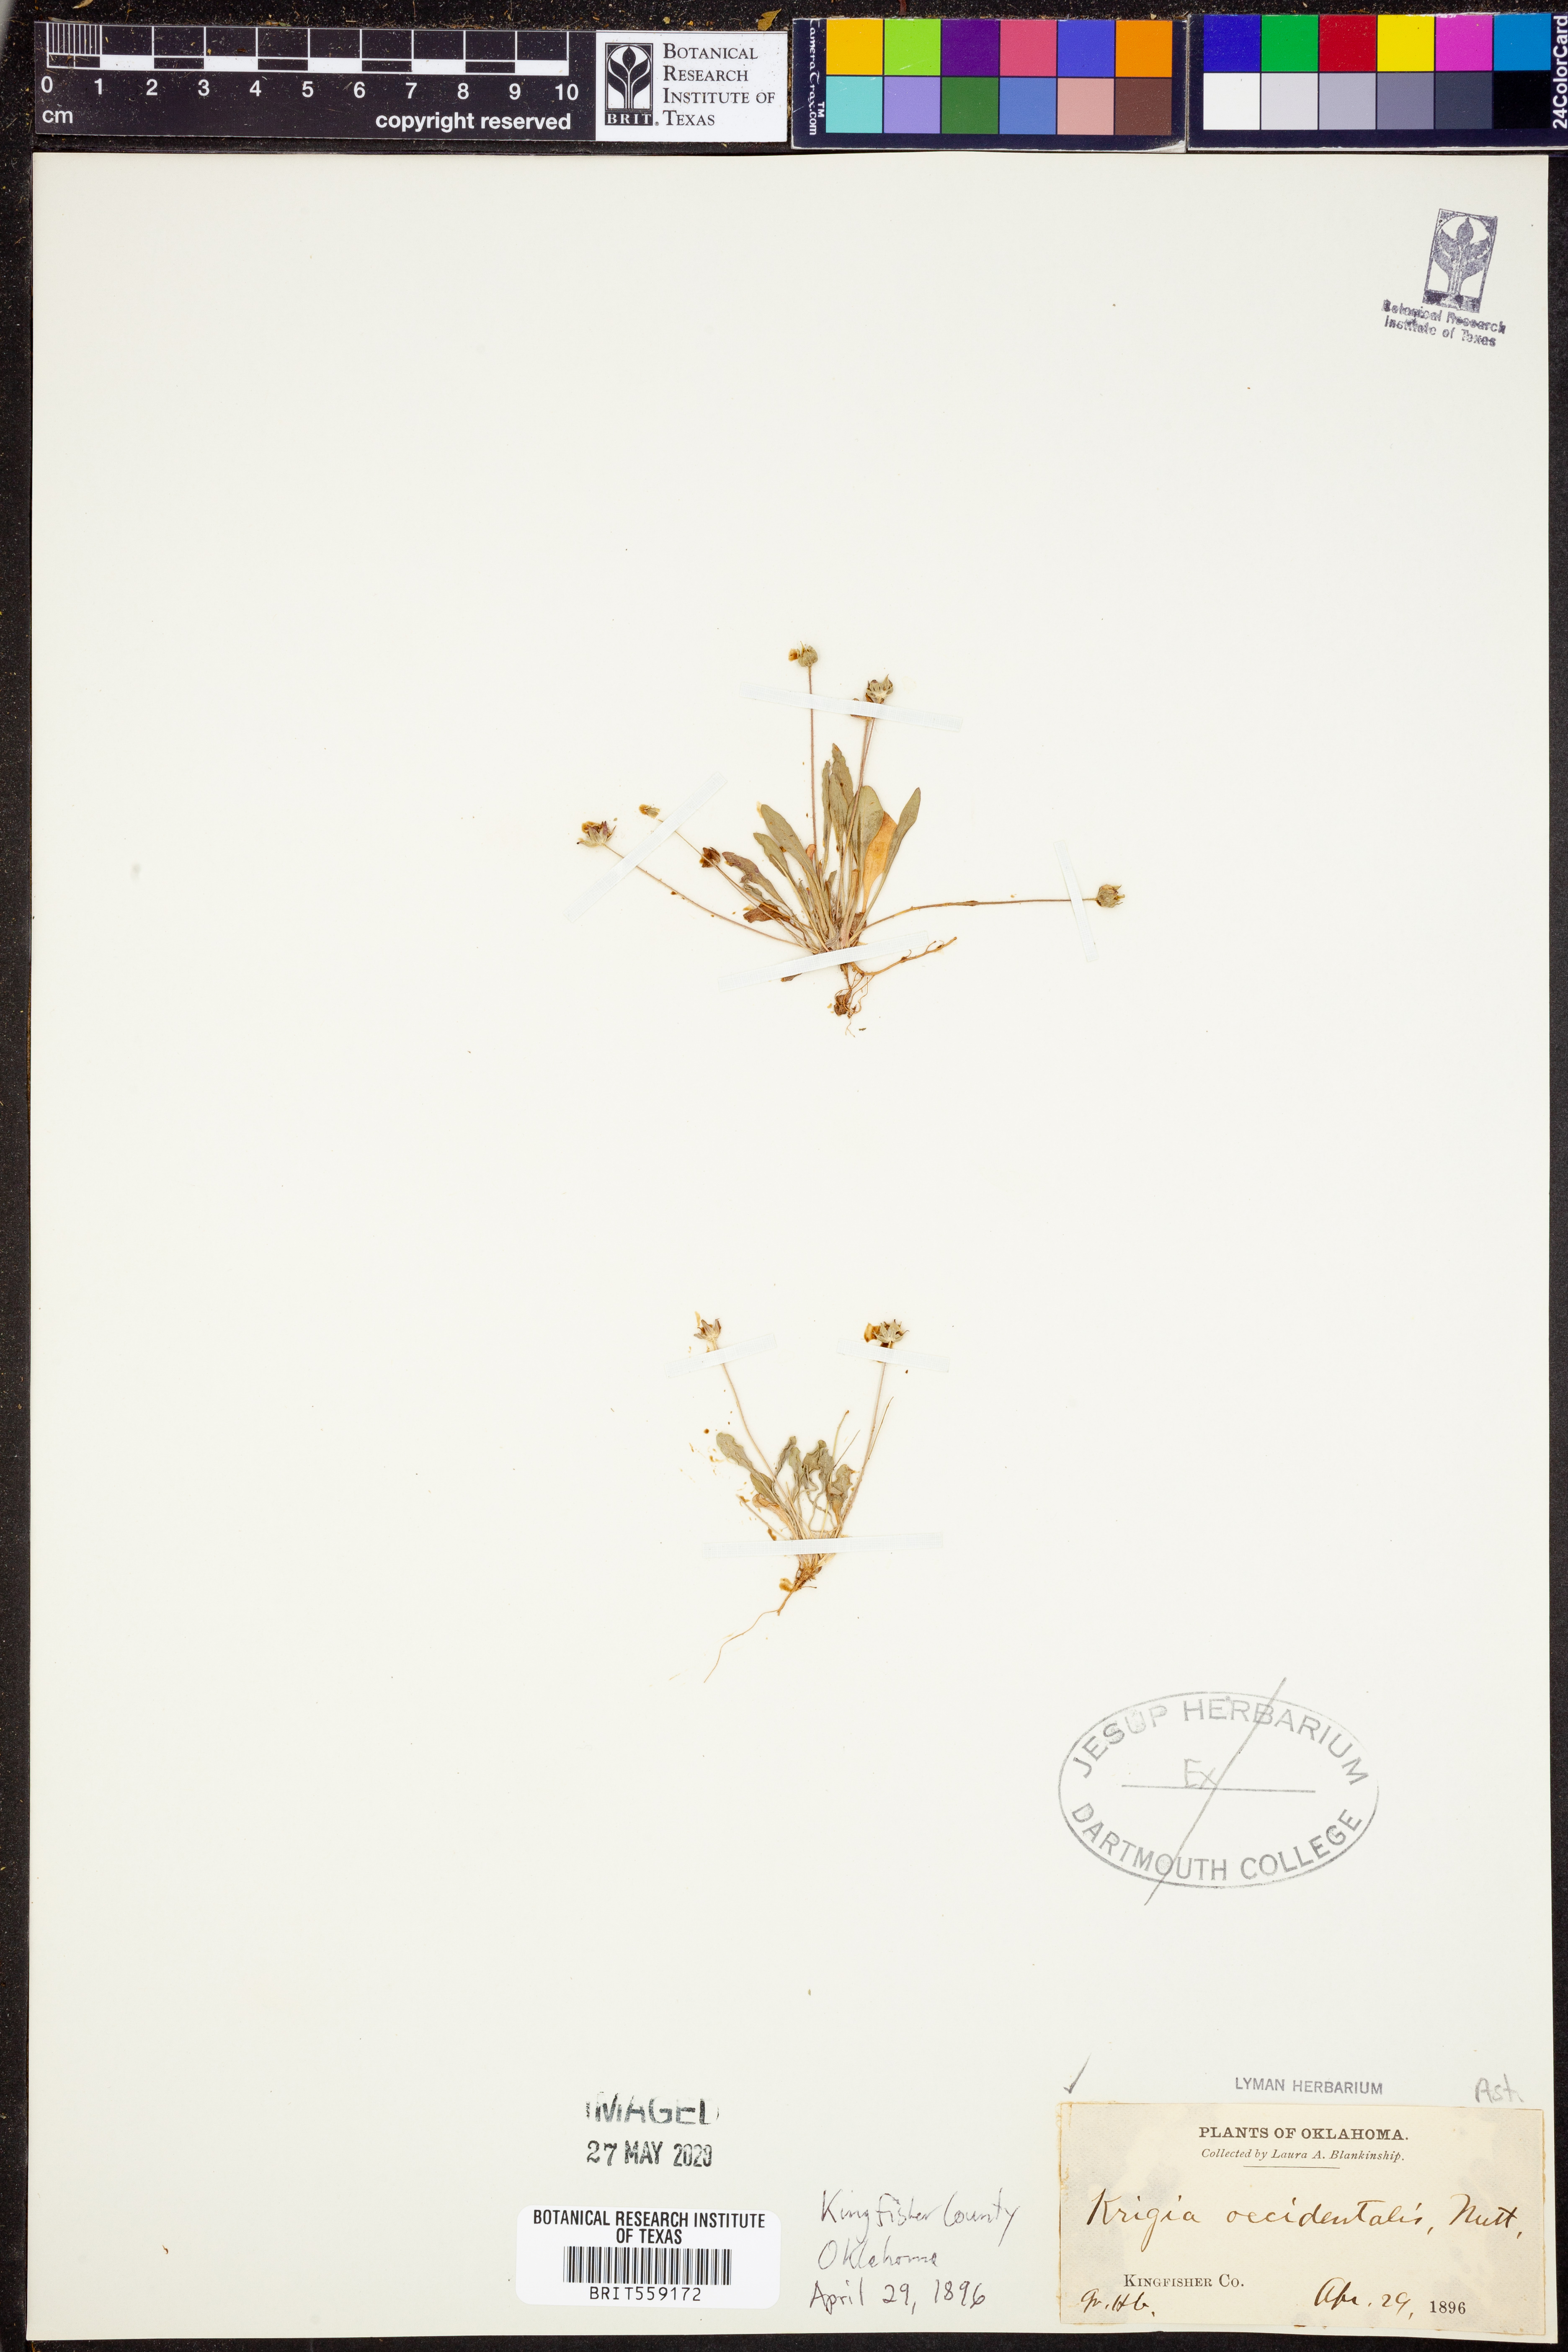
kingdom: Plantae
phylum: Tracheophyta
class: Magnoliopsida
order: Asterales
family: Asteraceae
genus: Krigia
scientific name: Krigia occidentalis
